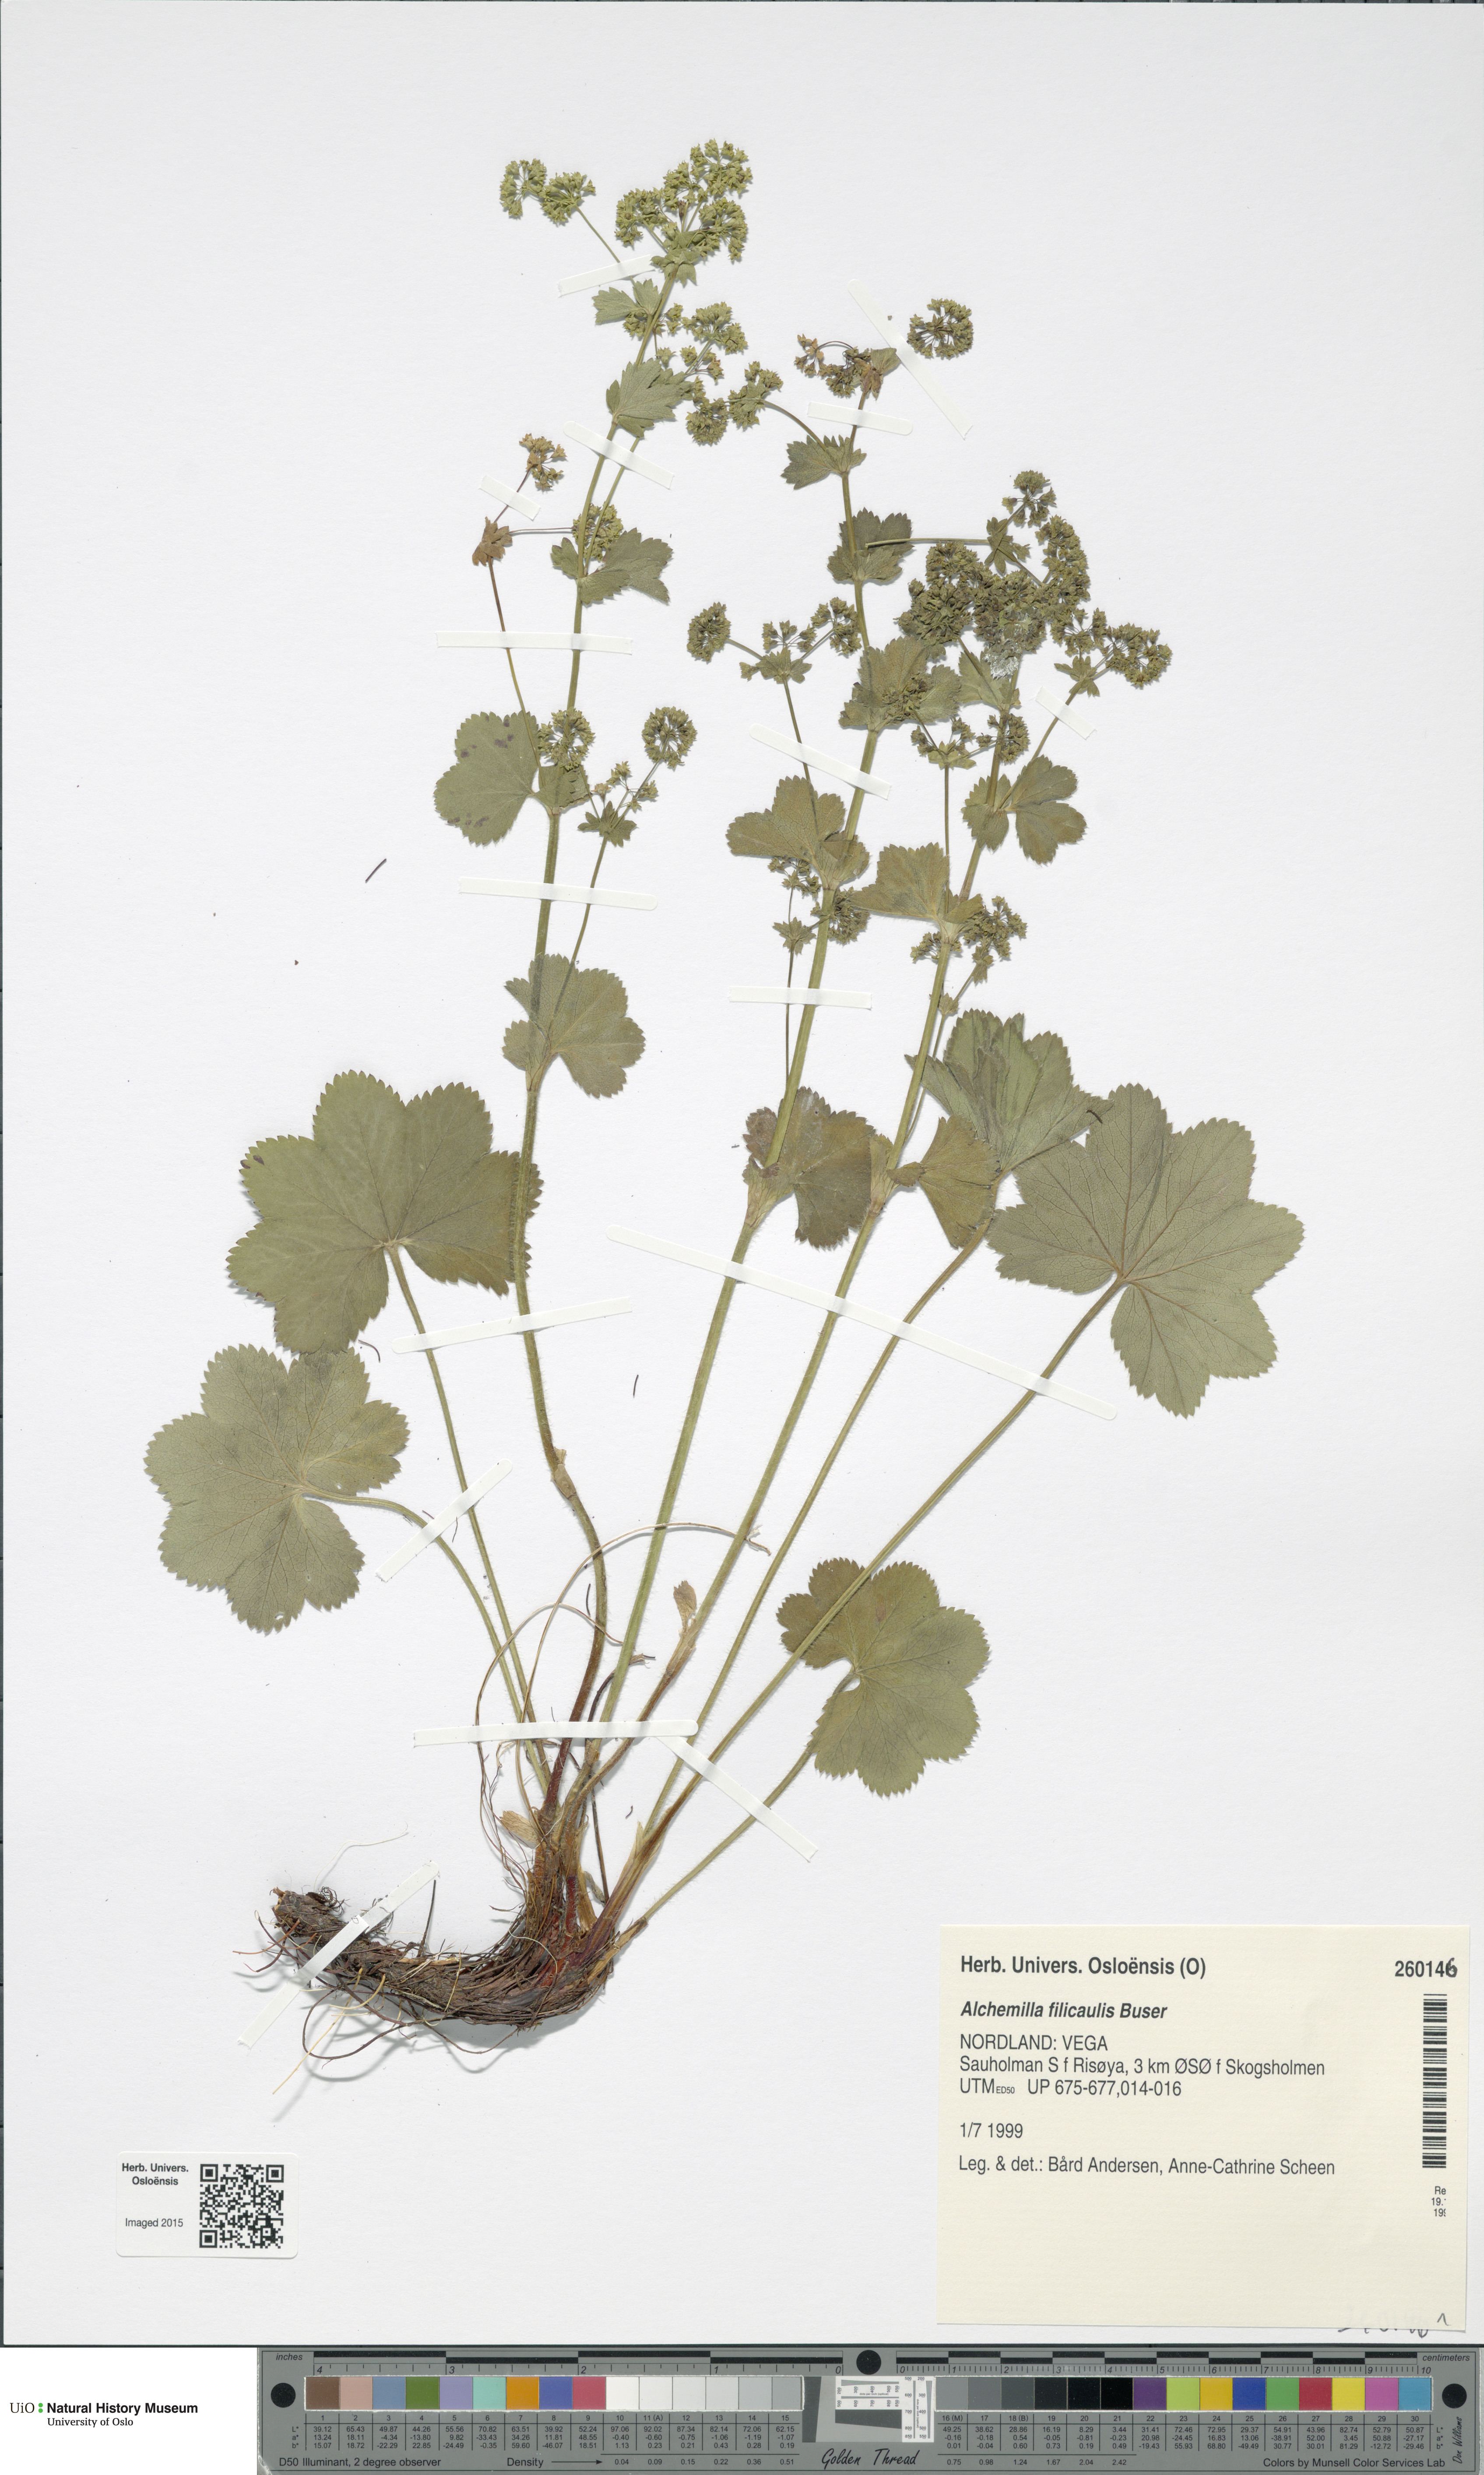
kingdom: Plantae
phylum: Tracheophyta
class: Magnoliopsida
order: Rosales
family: Rosaceae
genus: Alchemilla
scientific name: Alchemilla filicaulis
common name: Hairy lady's-mantle
